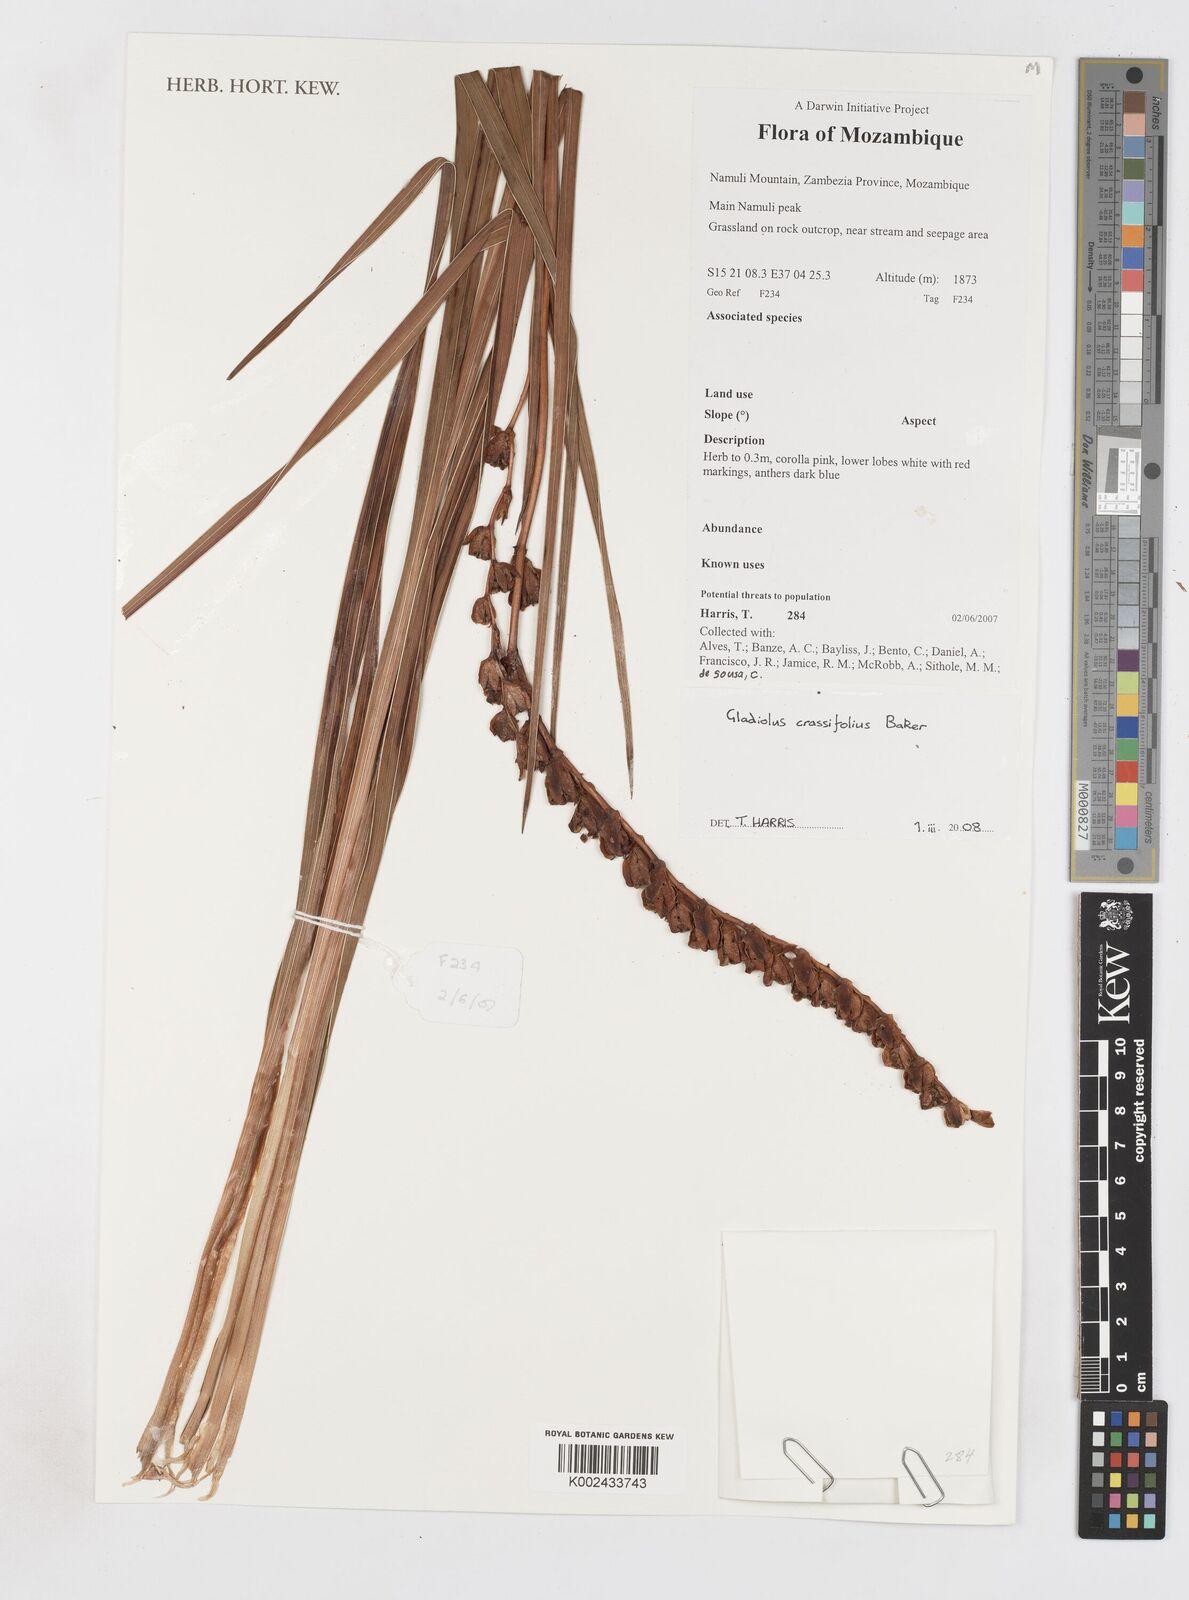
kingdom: Plantae
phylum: Tracheophyta
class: Liliopsida
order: Asparagales
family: Iridaceae
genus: Gladiolus
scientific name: Gladiolus crassifolius
